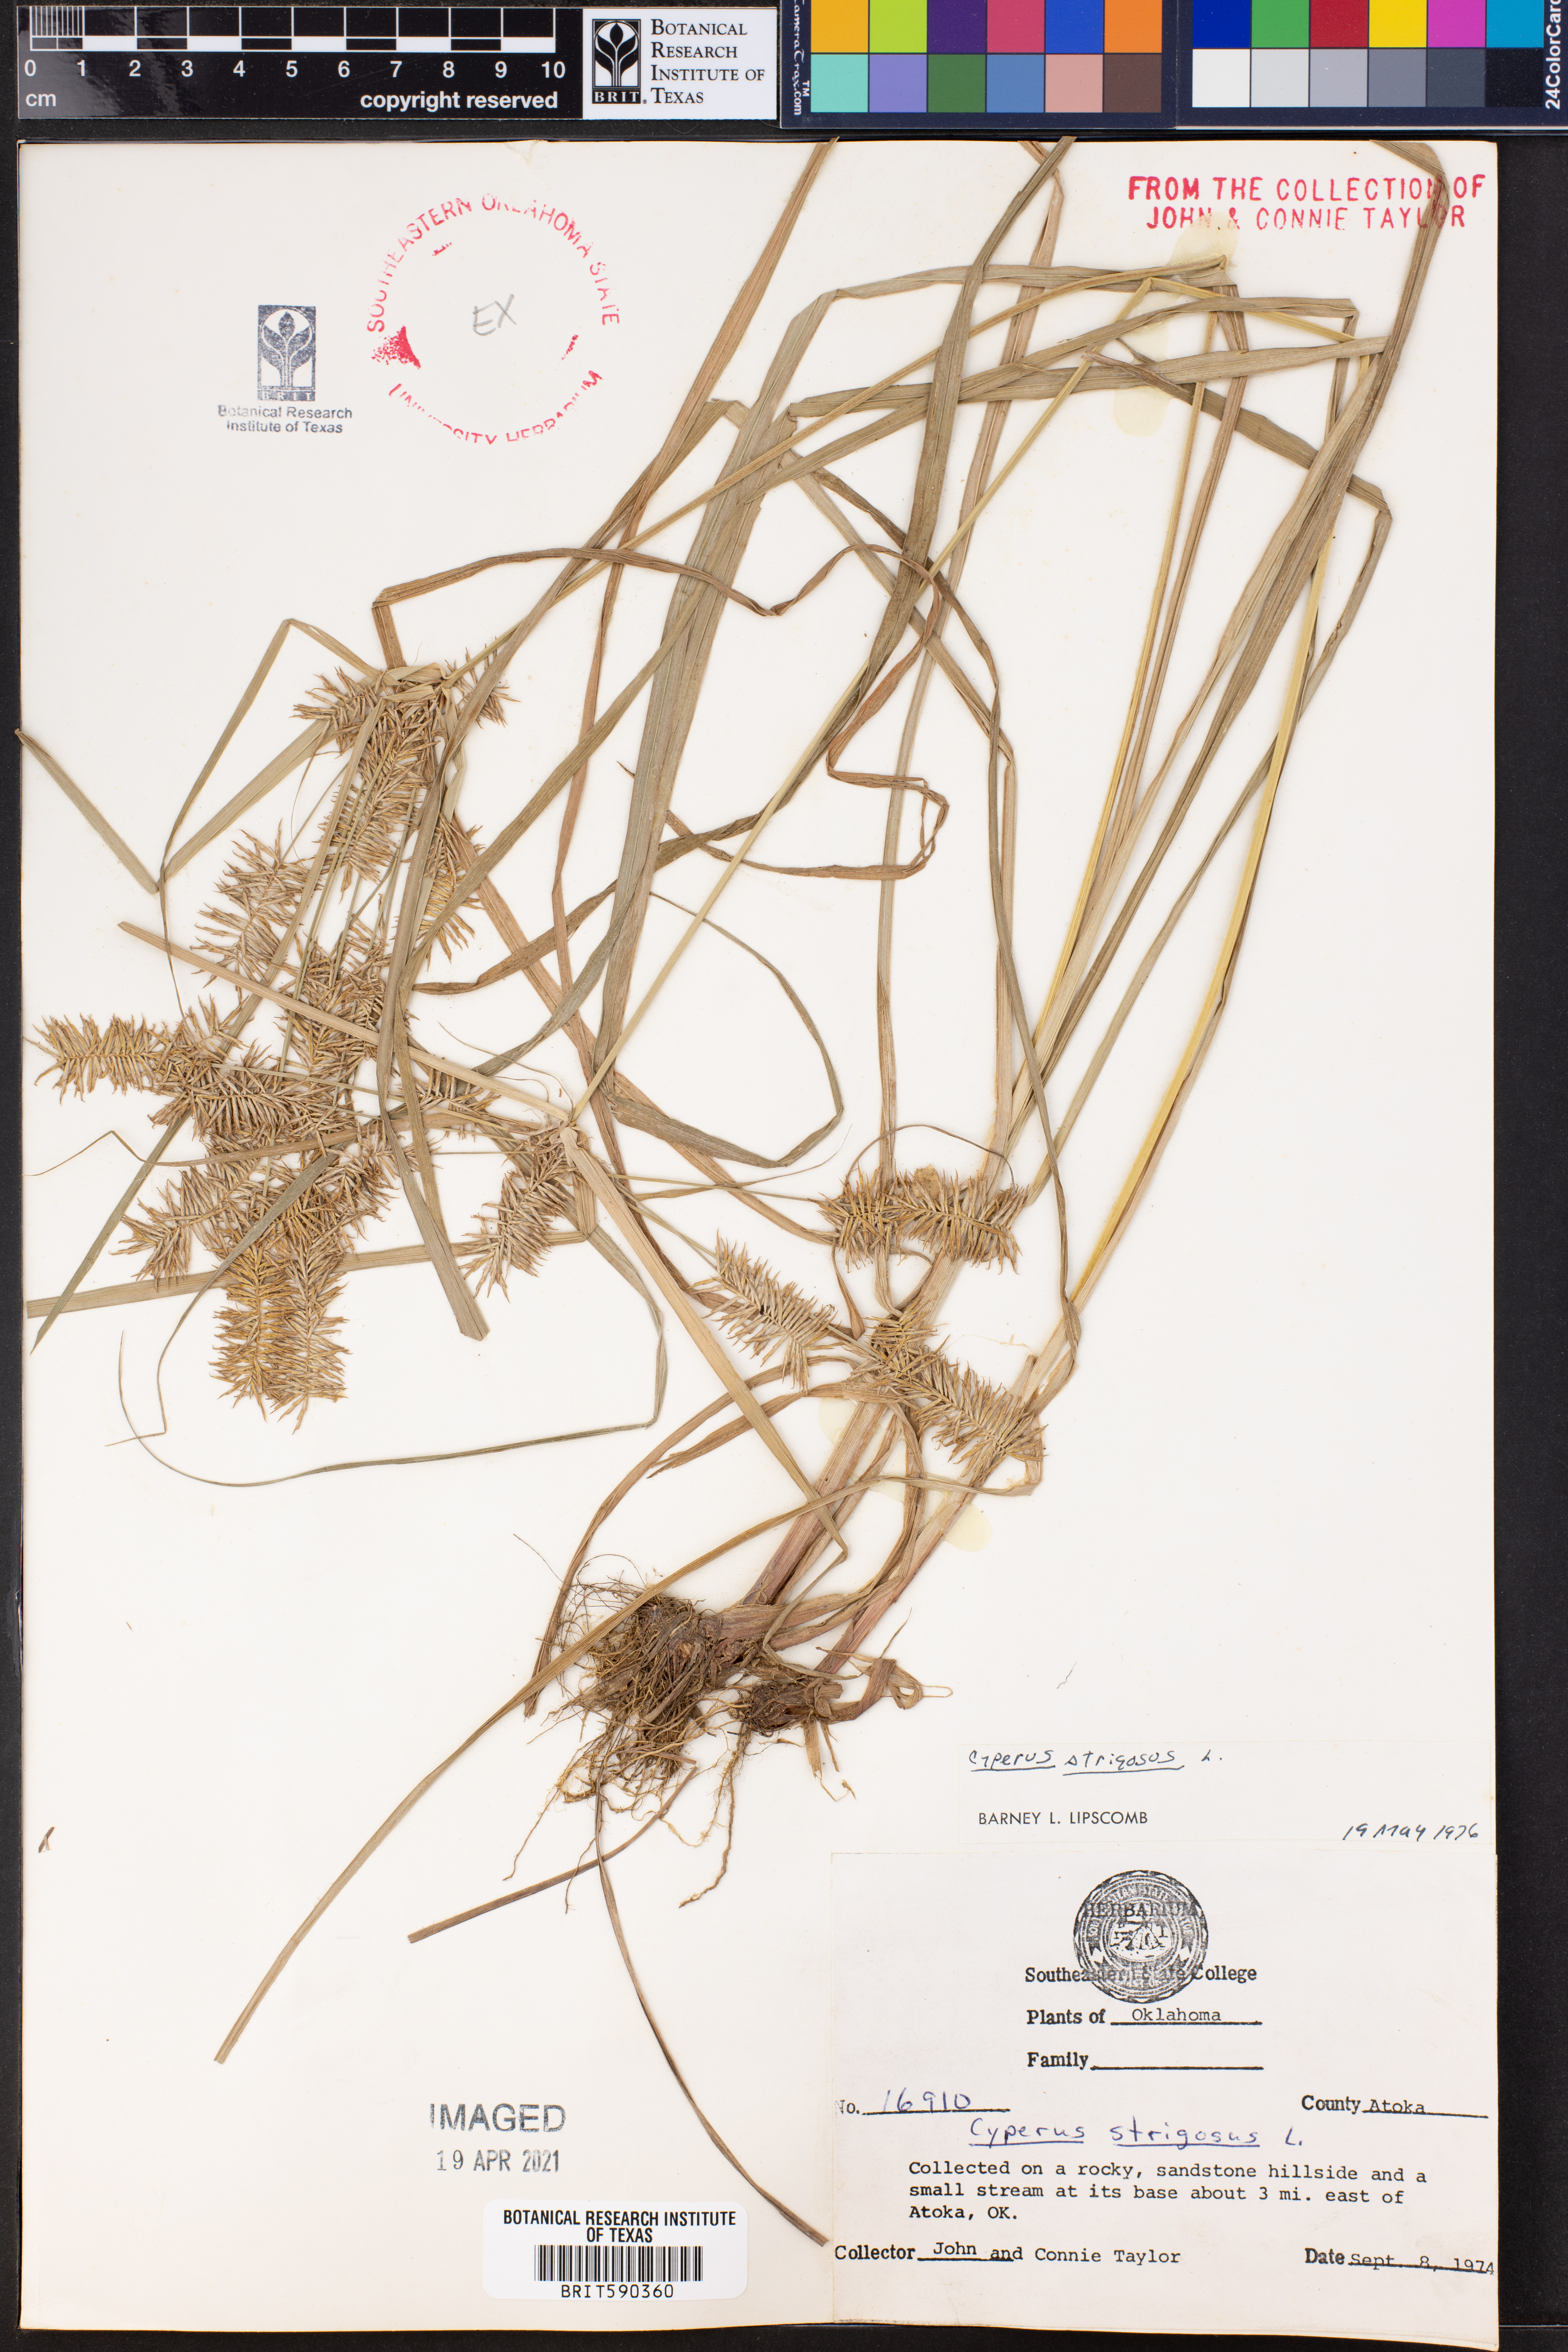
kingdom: Plantae
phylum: Tracheophyta
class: Liliopsida
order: Poales
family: Cyperaceae
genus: Cyperus
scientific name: Cyperus strigosus
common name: False nutsedge
